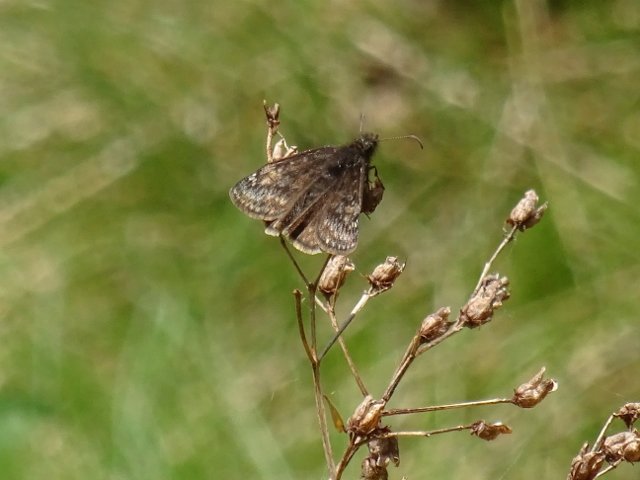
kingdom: Animalia
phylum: Arthropoda
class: Insecta
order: Lepidoptera
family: Hesperiidae
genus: Gesta
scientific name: Gesta
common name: Wild Indigo Duskywing
